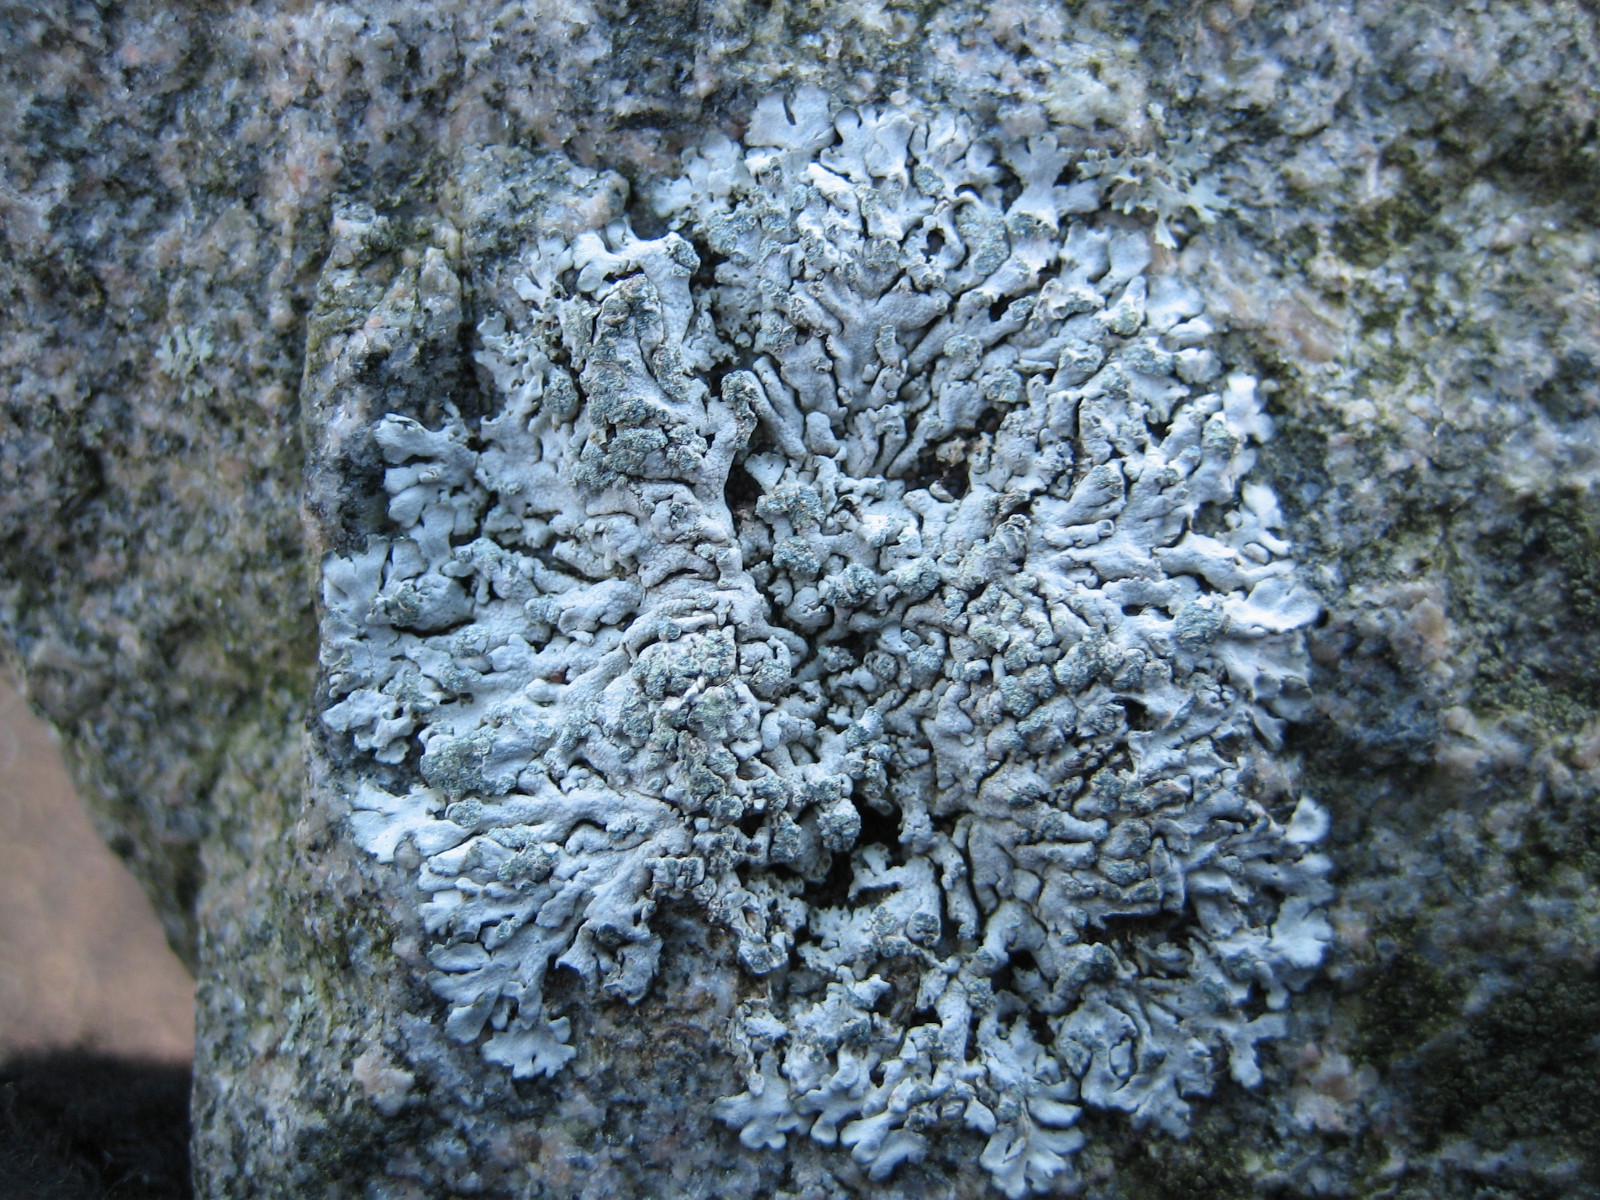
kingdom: Fungi
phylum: Ascomycota
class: Lecanoromycetes
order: Caliciales
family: Physciaceae
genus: Physcia
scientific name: Physcia caesia
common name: blågrå rosetlav
